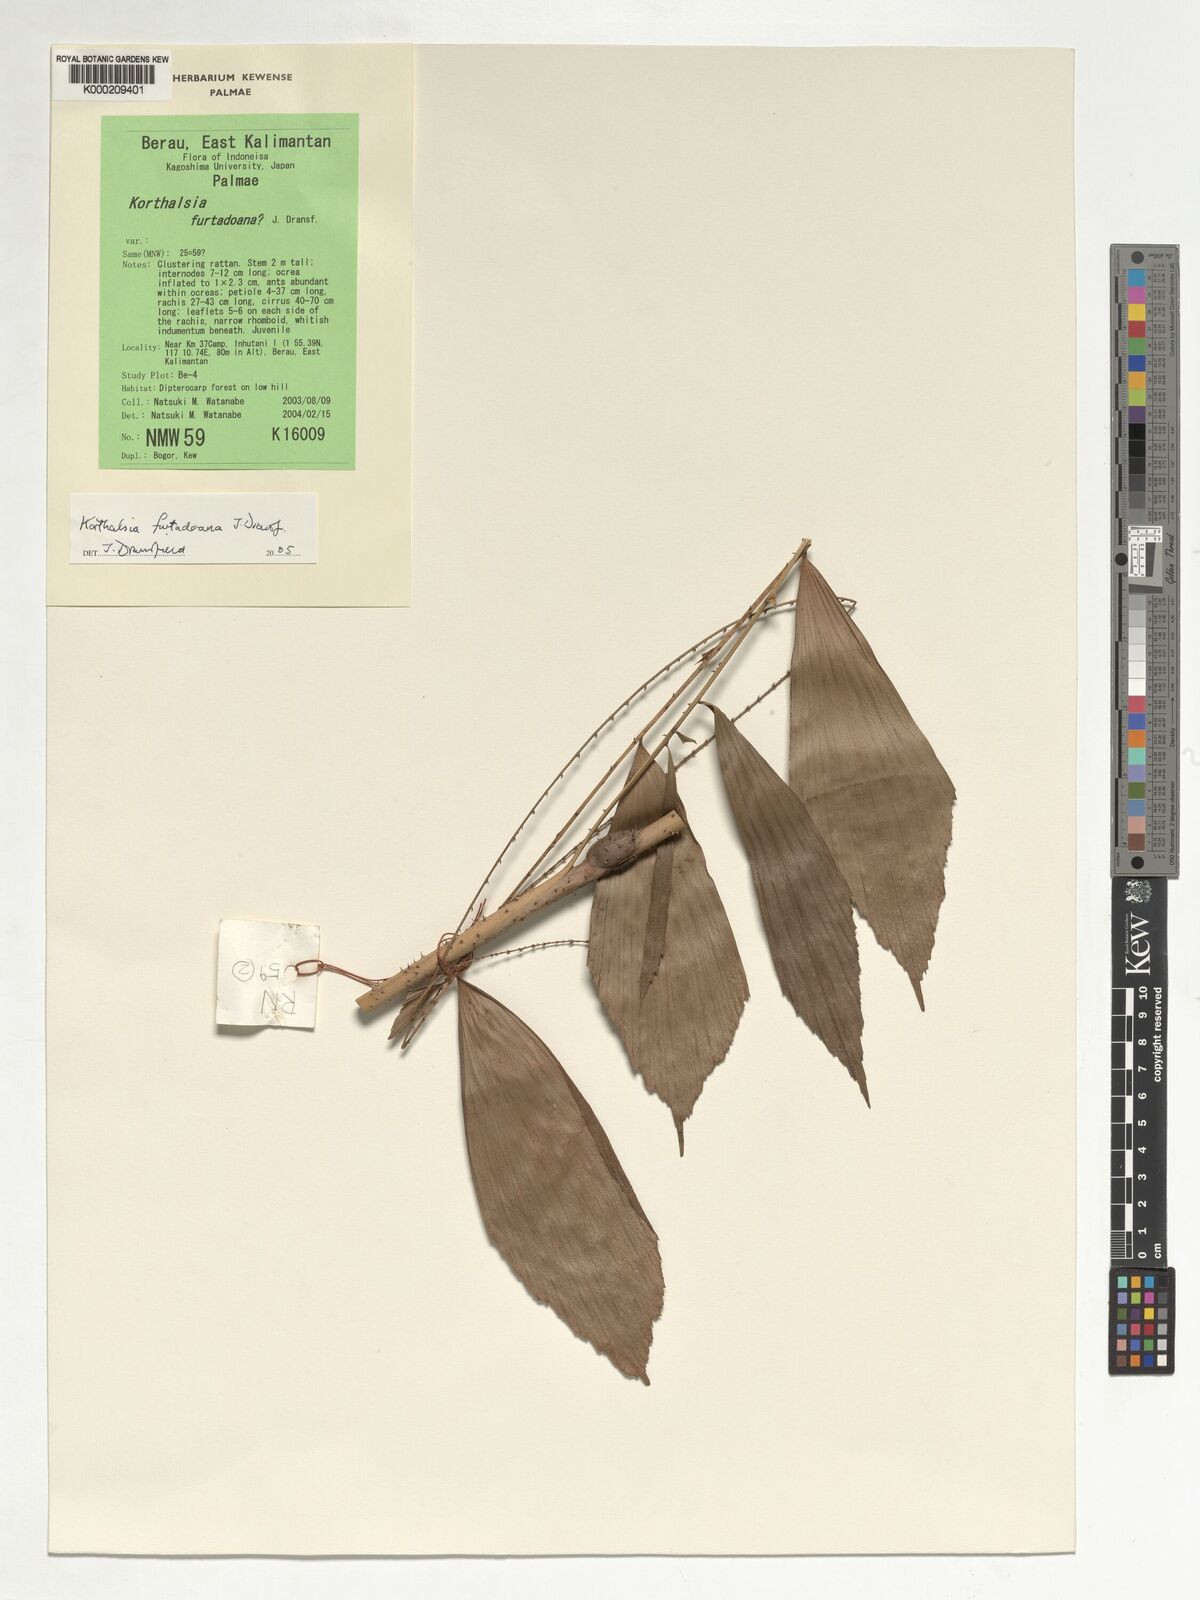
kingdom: Plantae
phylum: Tracheophyta
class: Liliopsida
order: Arecales
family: Arecaceae
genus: Korthalsia
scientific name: Korthalsia furtadoana
